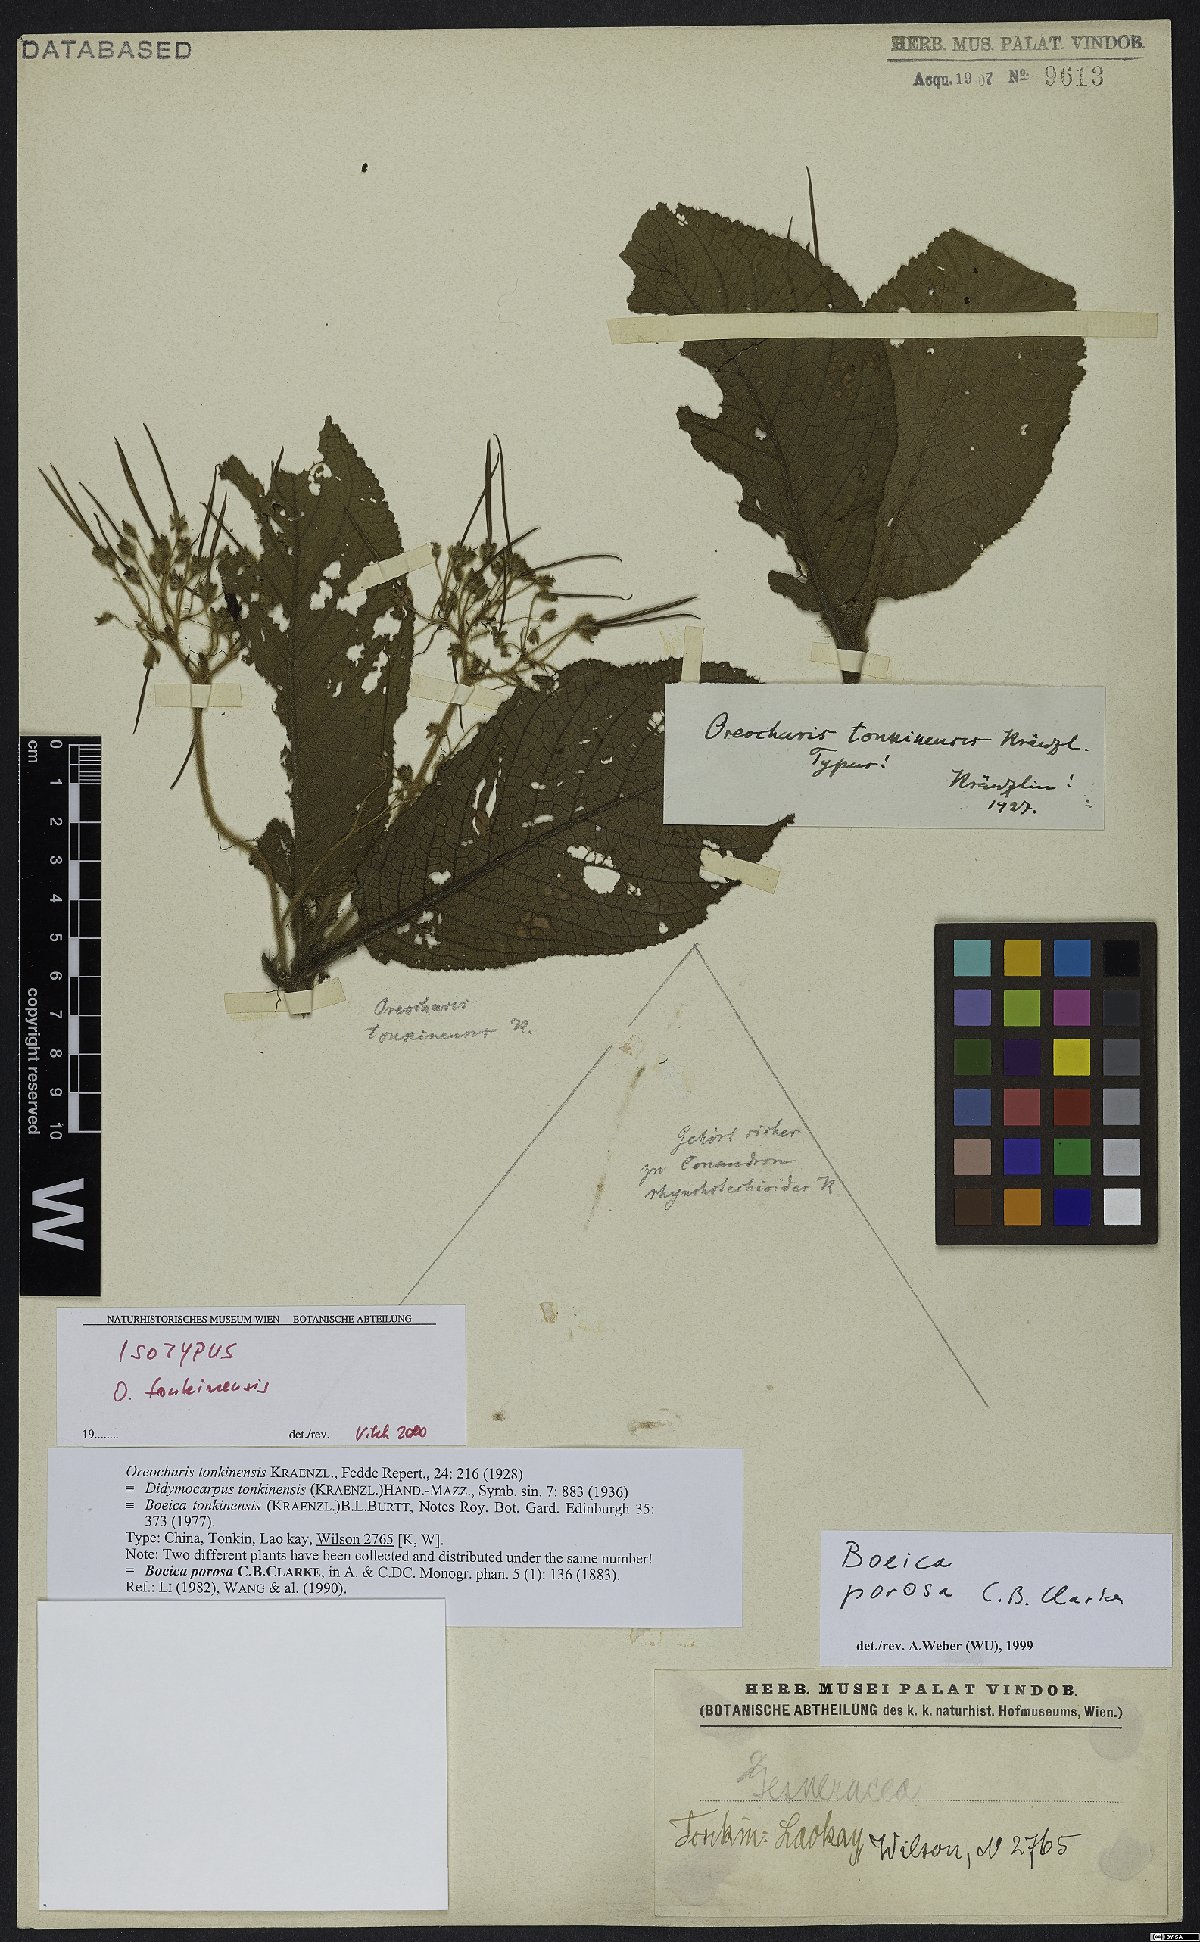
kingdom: Plantae
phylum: Tracheophyta
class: Magnoliopsida
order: Lamiales
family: Gesneriaceae
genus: Boeica
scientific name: Boeica porosa
